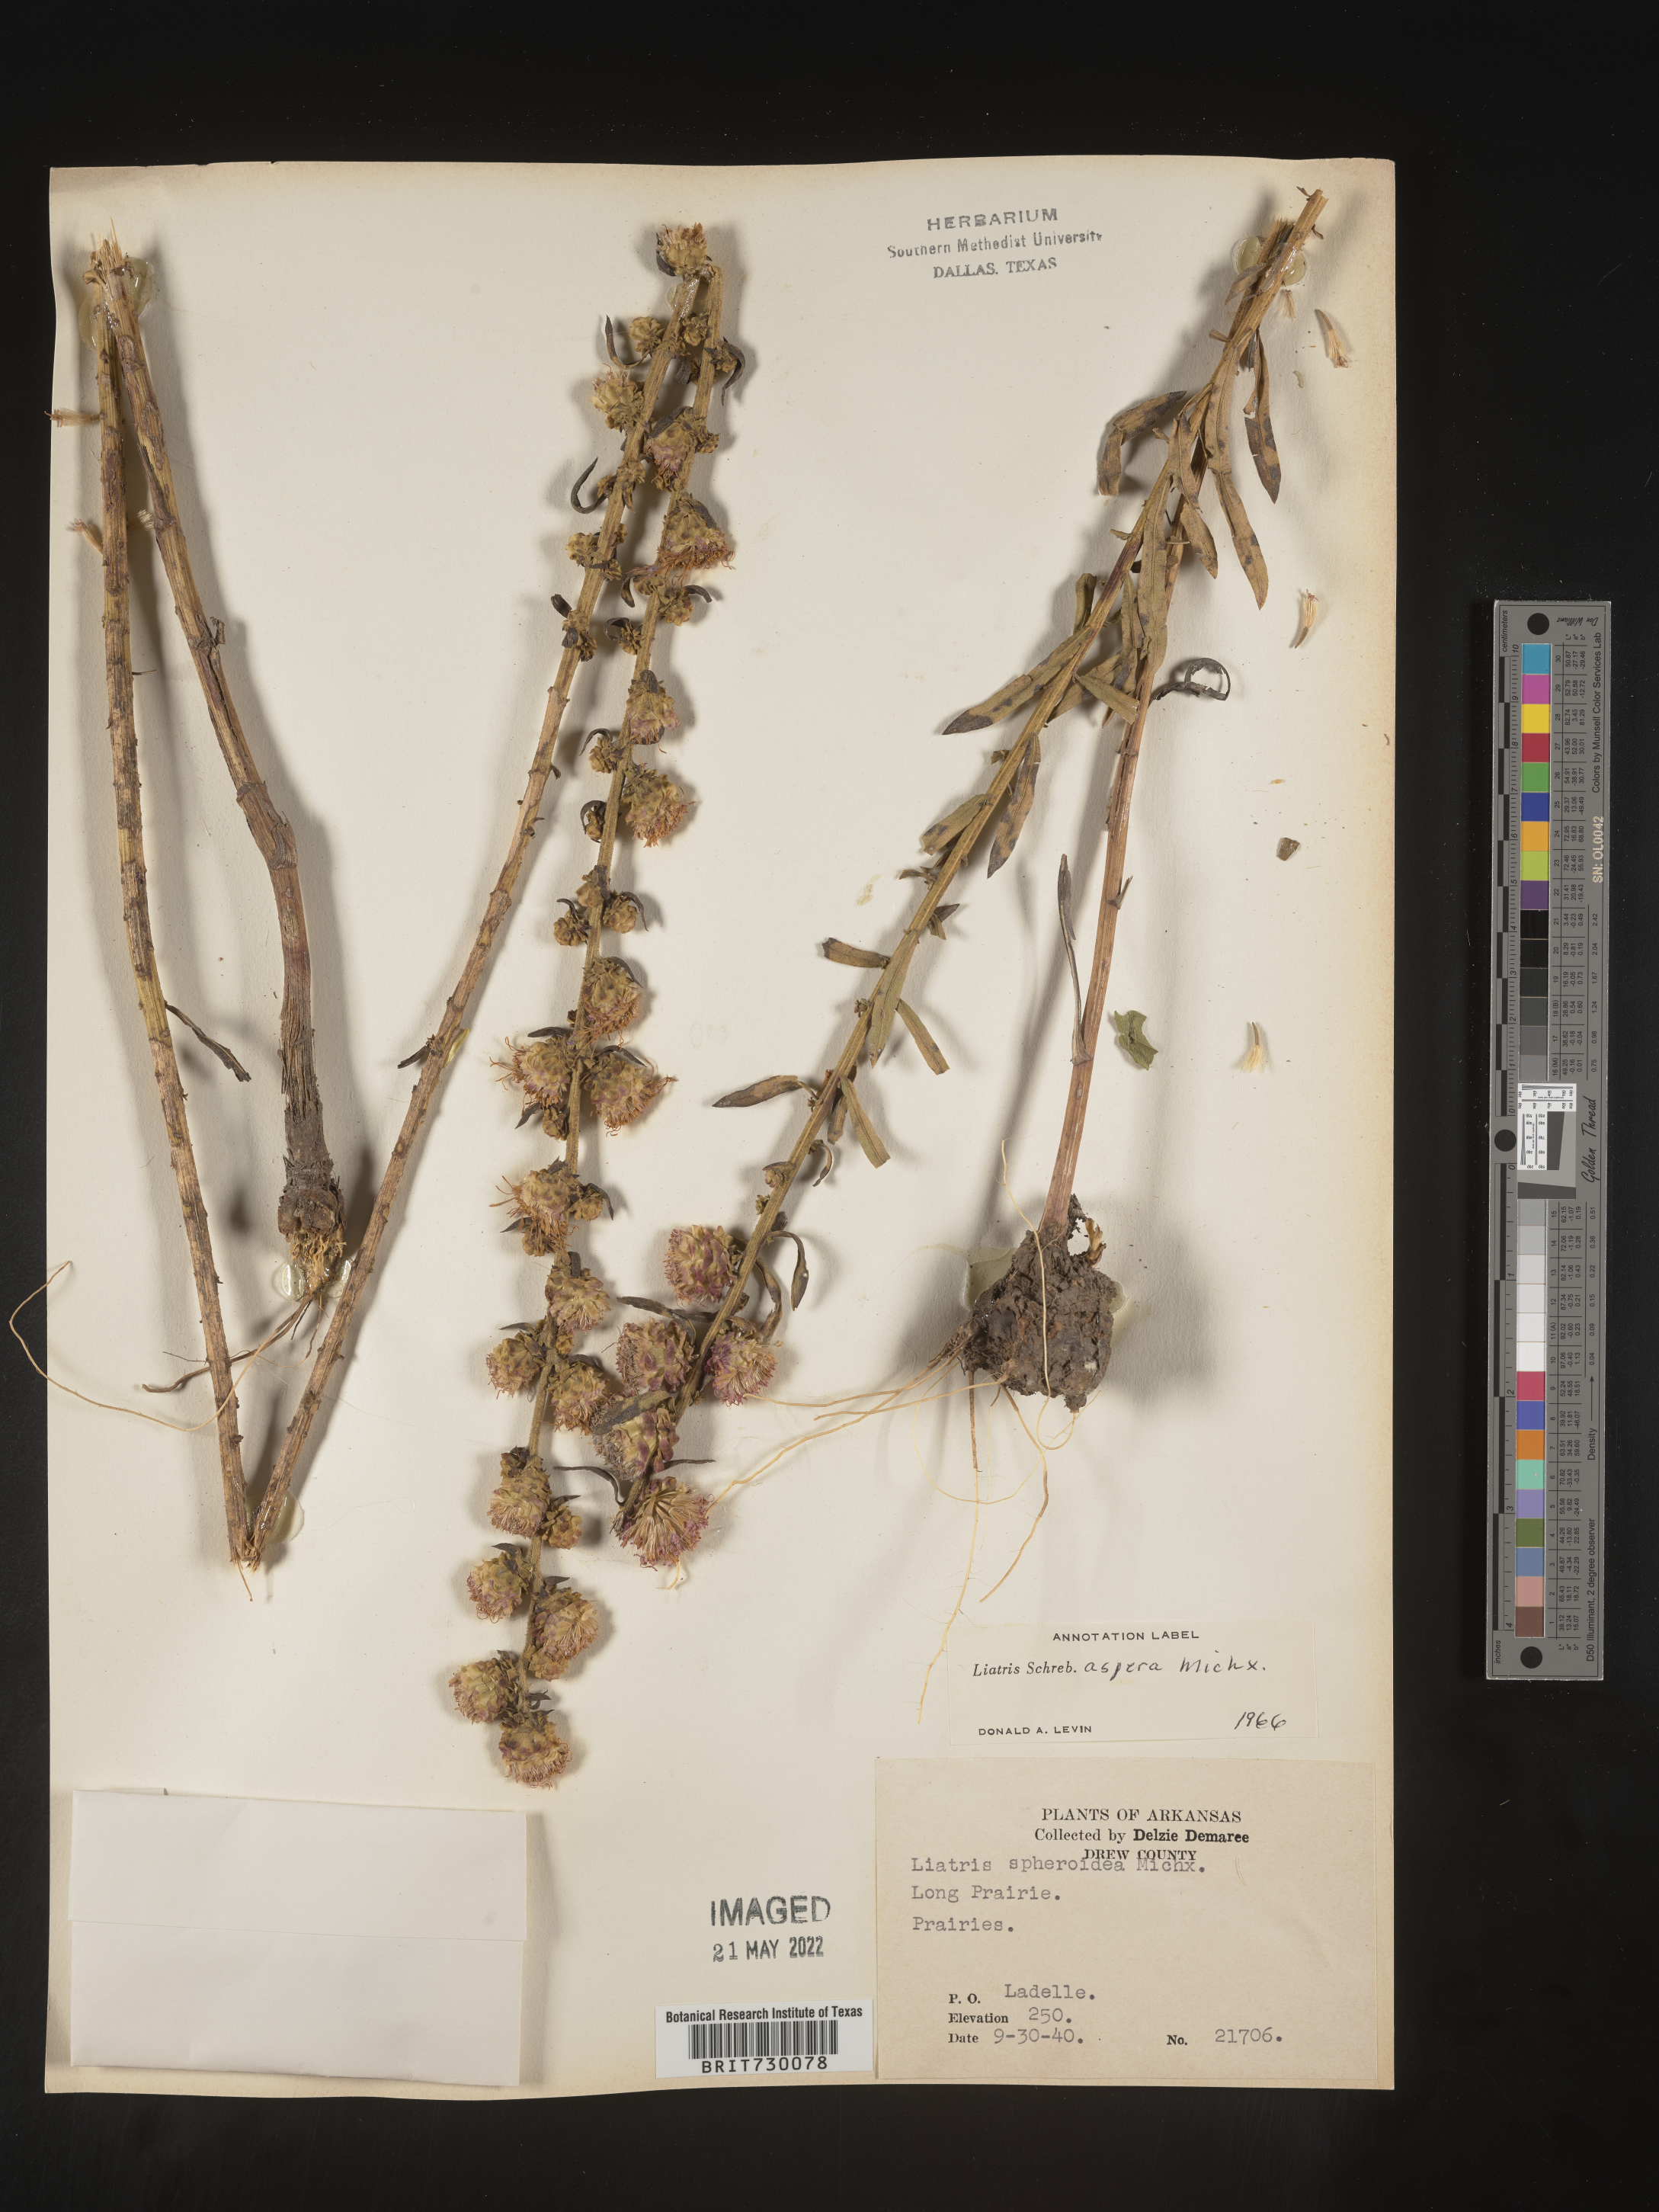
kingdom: Plantae
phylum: Tracheophyta
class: Magnoliopsida
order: Asterales
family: Asteraceae
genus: Liatris
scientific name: Liatris aspera
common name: Lacerate blazing-star
